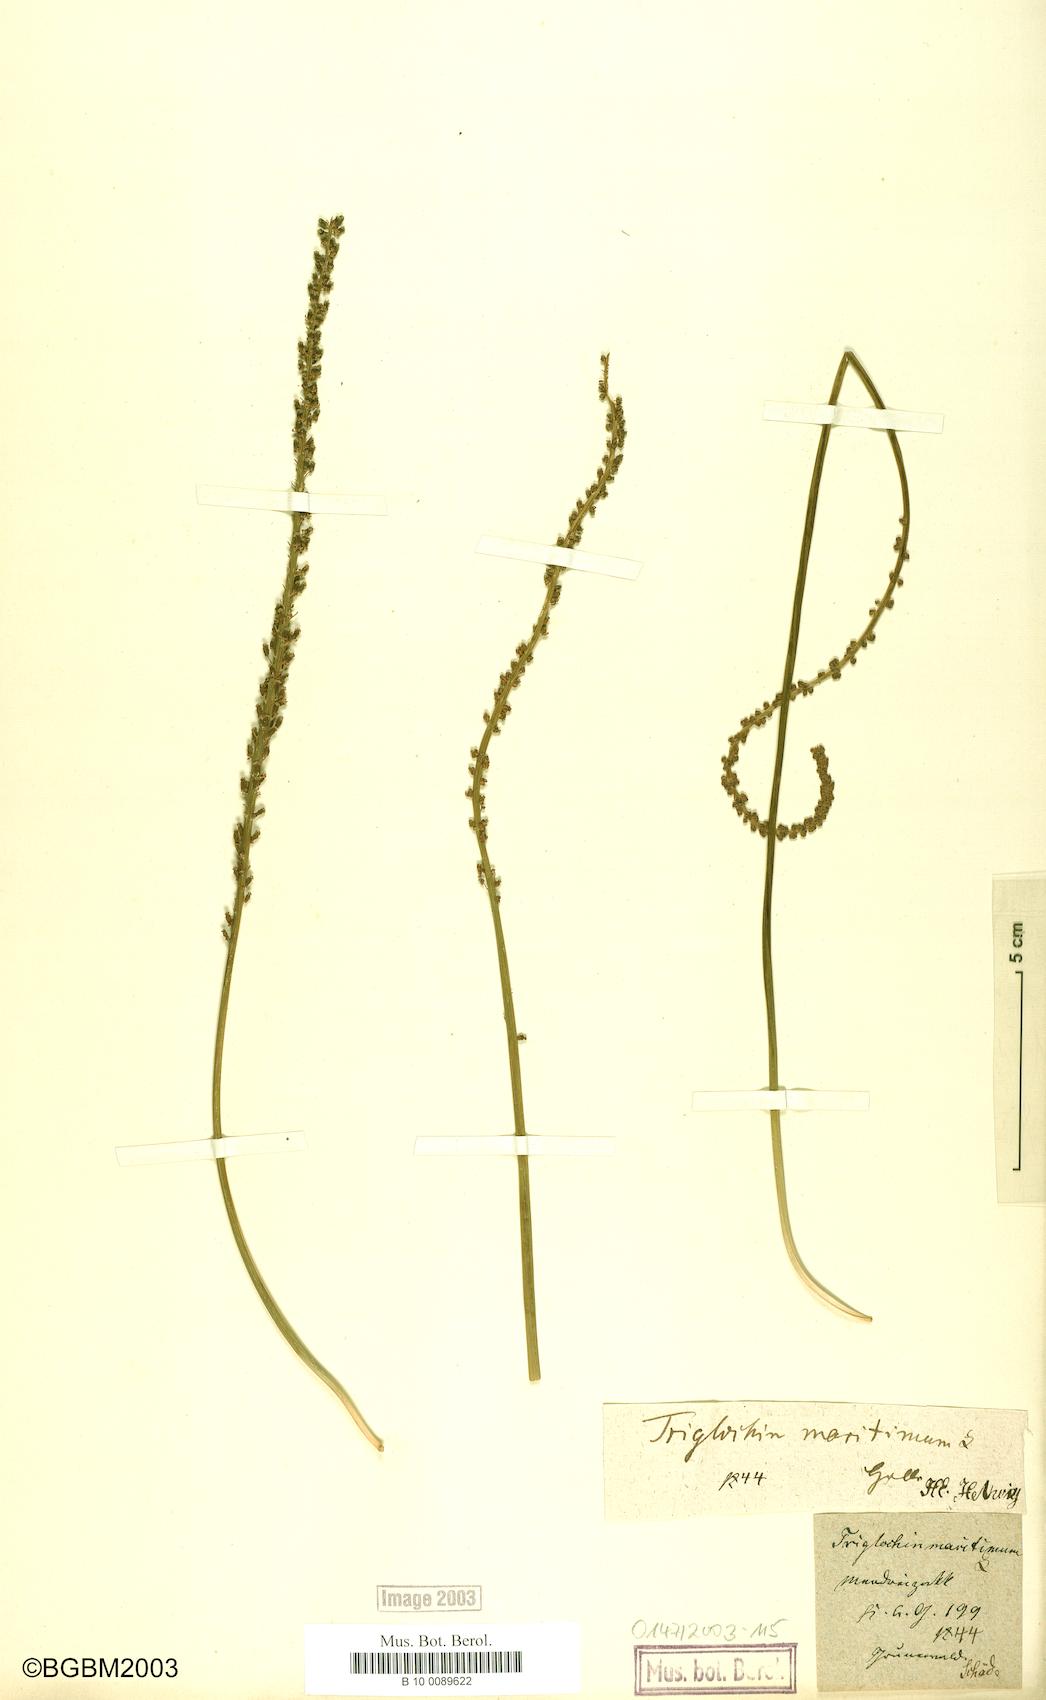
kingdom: Plantae
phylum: Tracheophyta
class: Liliopsida
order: Alismatales
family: Juncaginaceae
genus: Triglochin
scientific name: Triglochin maritima
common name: Sea arrowgrass
